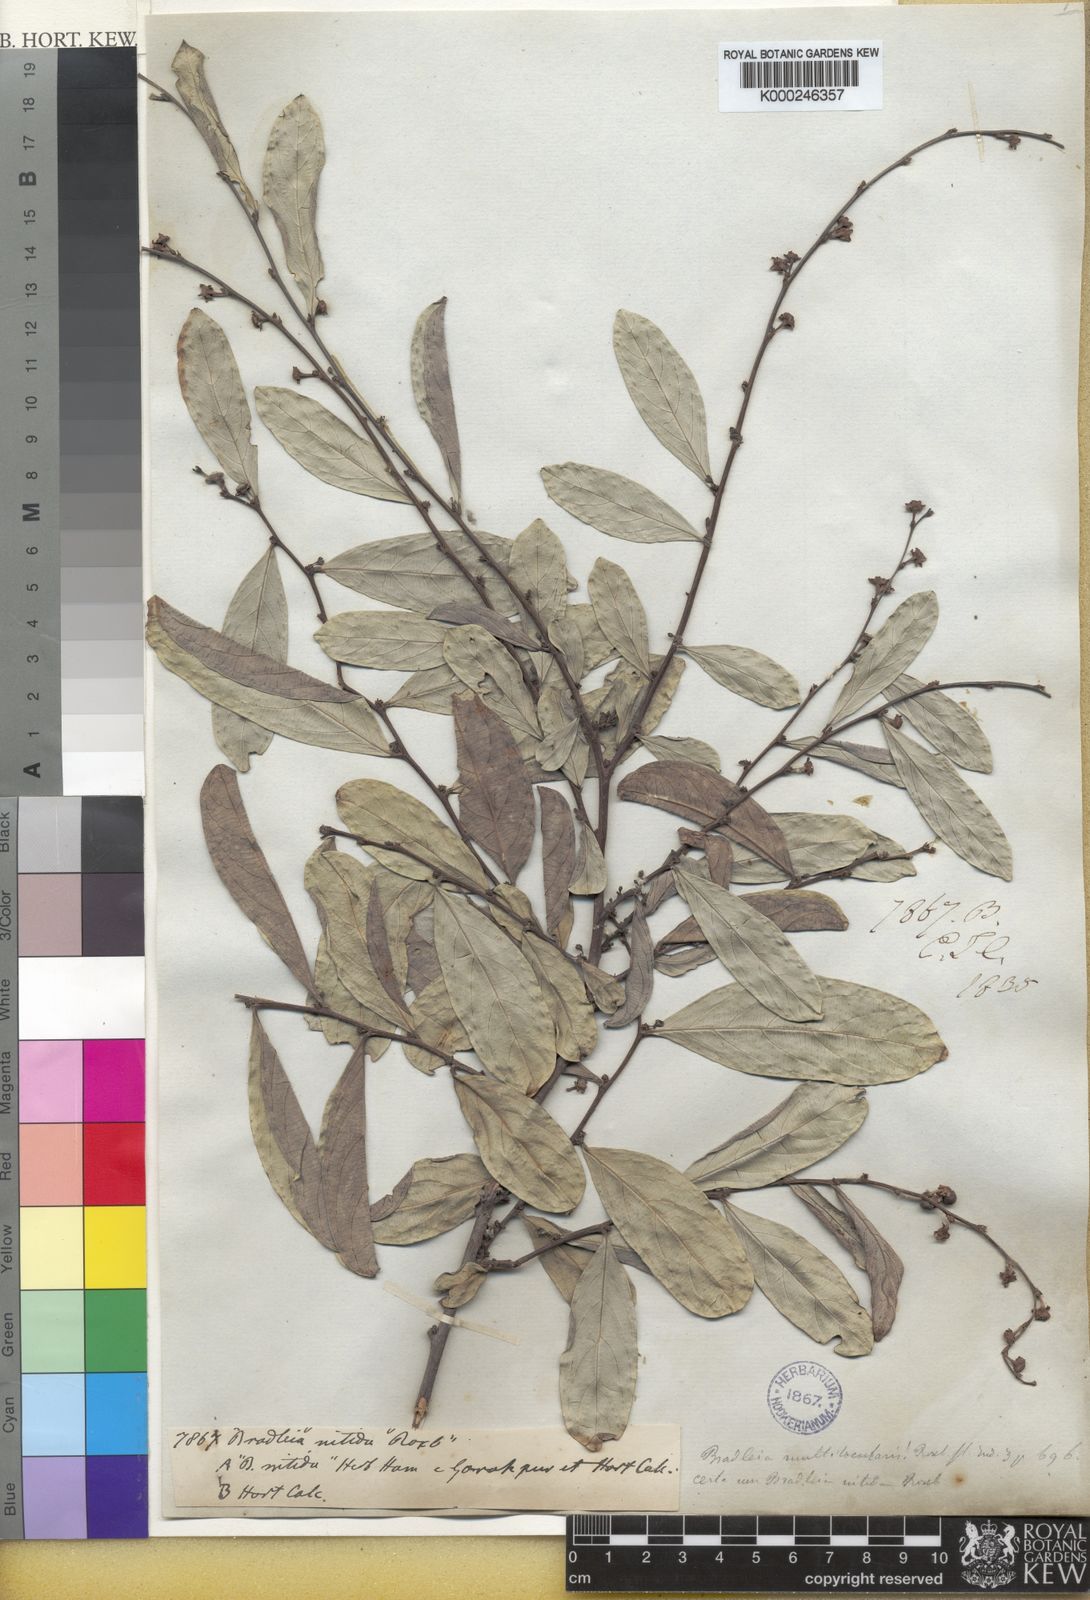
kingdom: Plantae
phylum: Tracheophyta
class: Magnoliopsida
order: Malpighiales
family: Phyllanthaceae
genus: Glochidion
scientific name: Glochidion multiloculare
